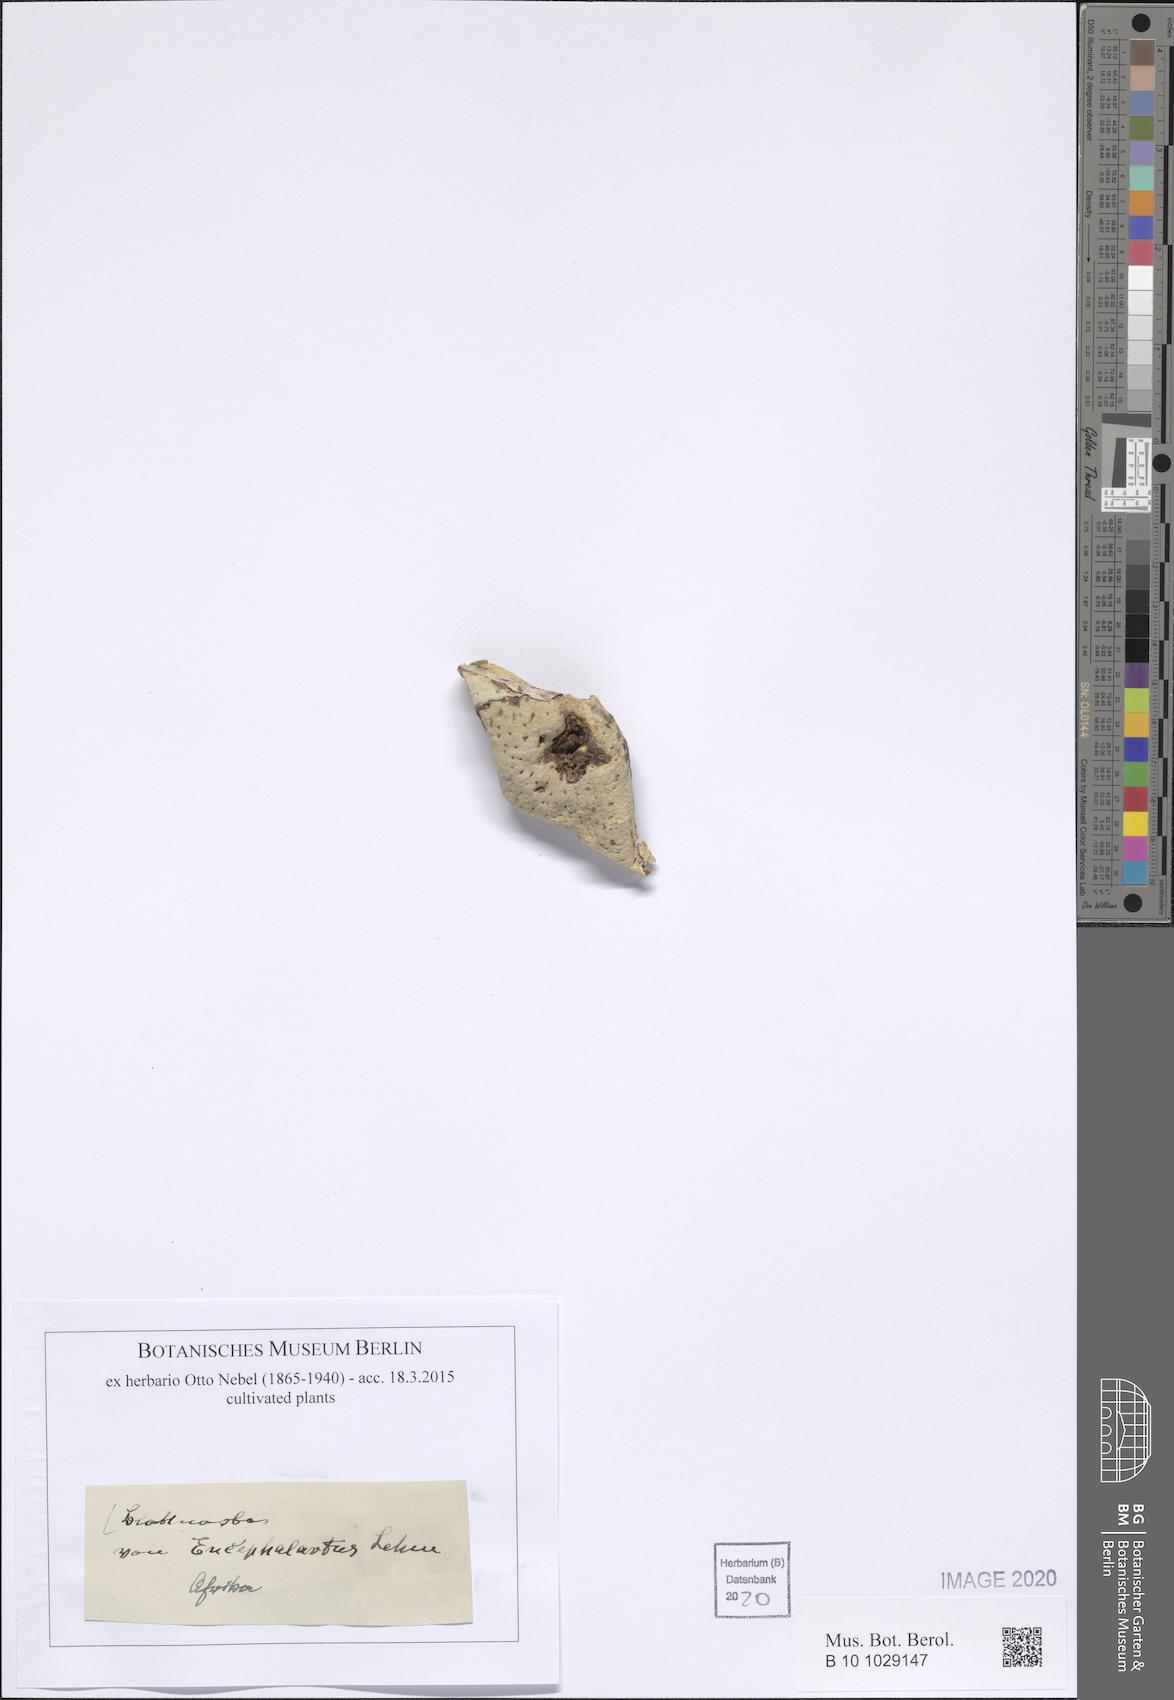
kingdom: Plantae
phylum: Tracheophyta
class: Cycadopsida
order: Cycadales
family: Zamiaceae
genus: Encephalartos
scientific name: Encephalartos
